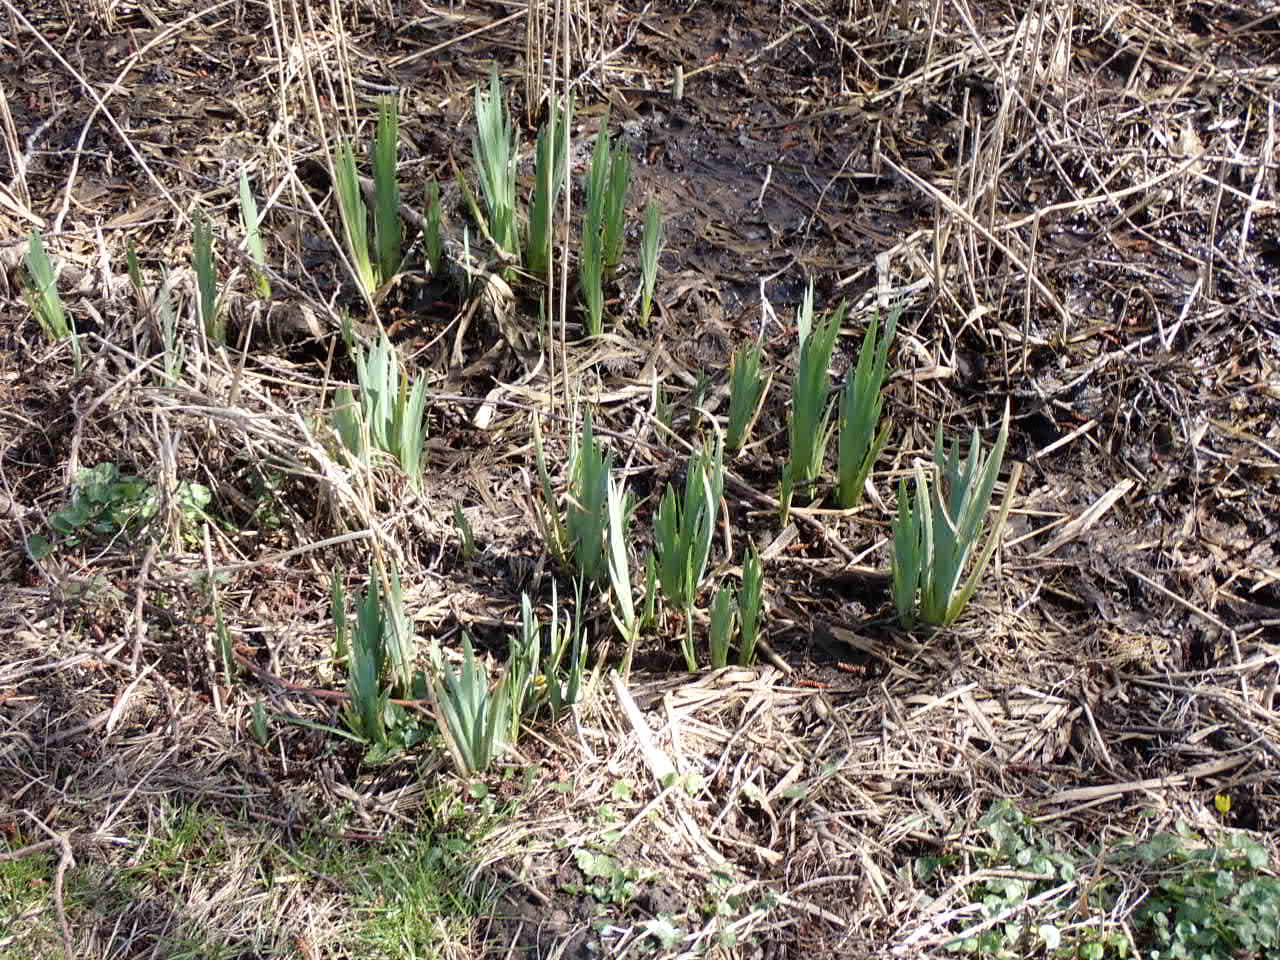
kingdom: Plantae
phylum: Tracheophyta
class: Liliopsida
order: Asparagales
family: Iridaceae
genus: Iris
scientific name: Iris pseudacorus
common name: Gul iris
